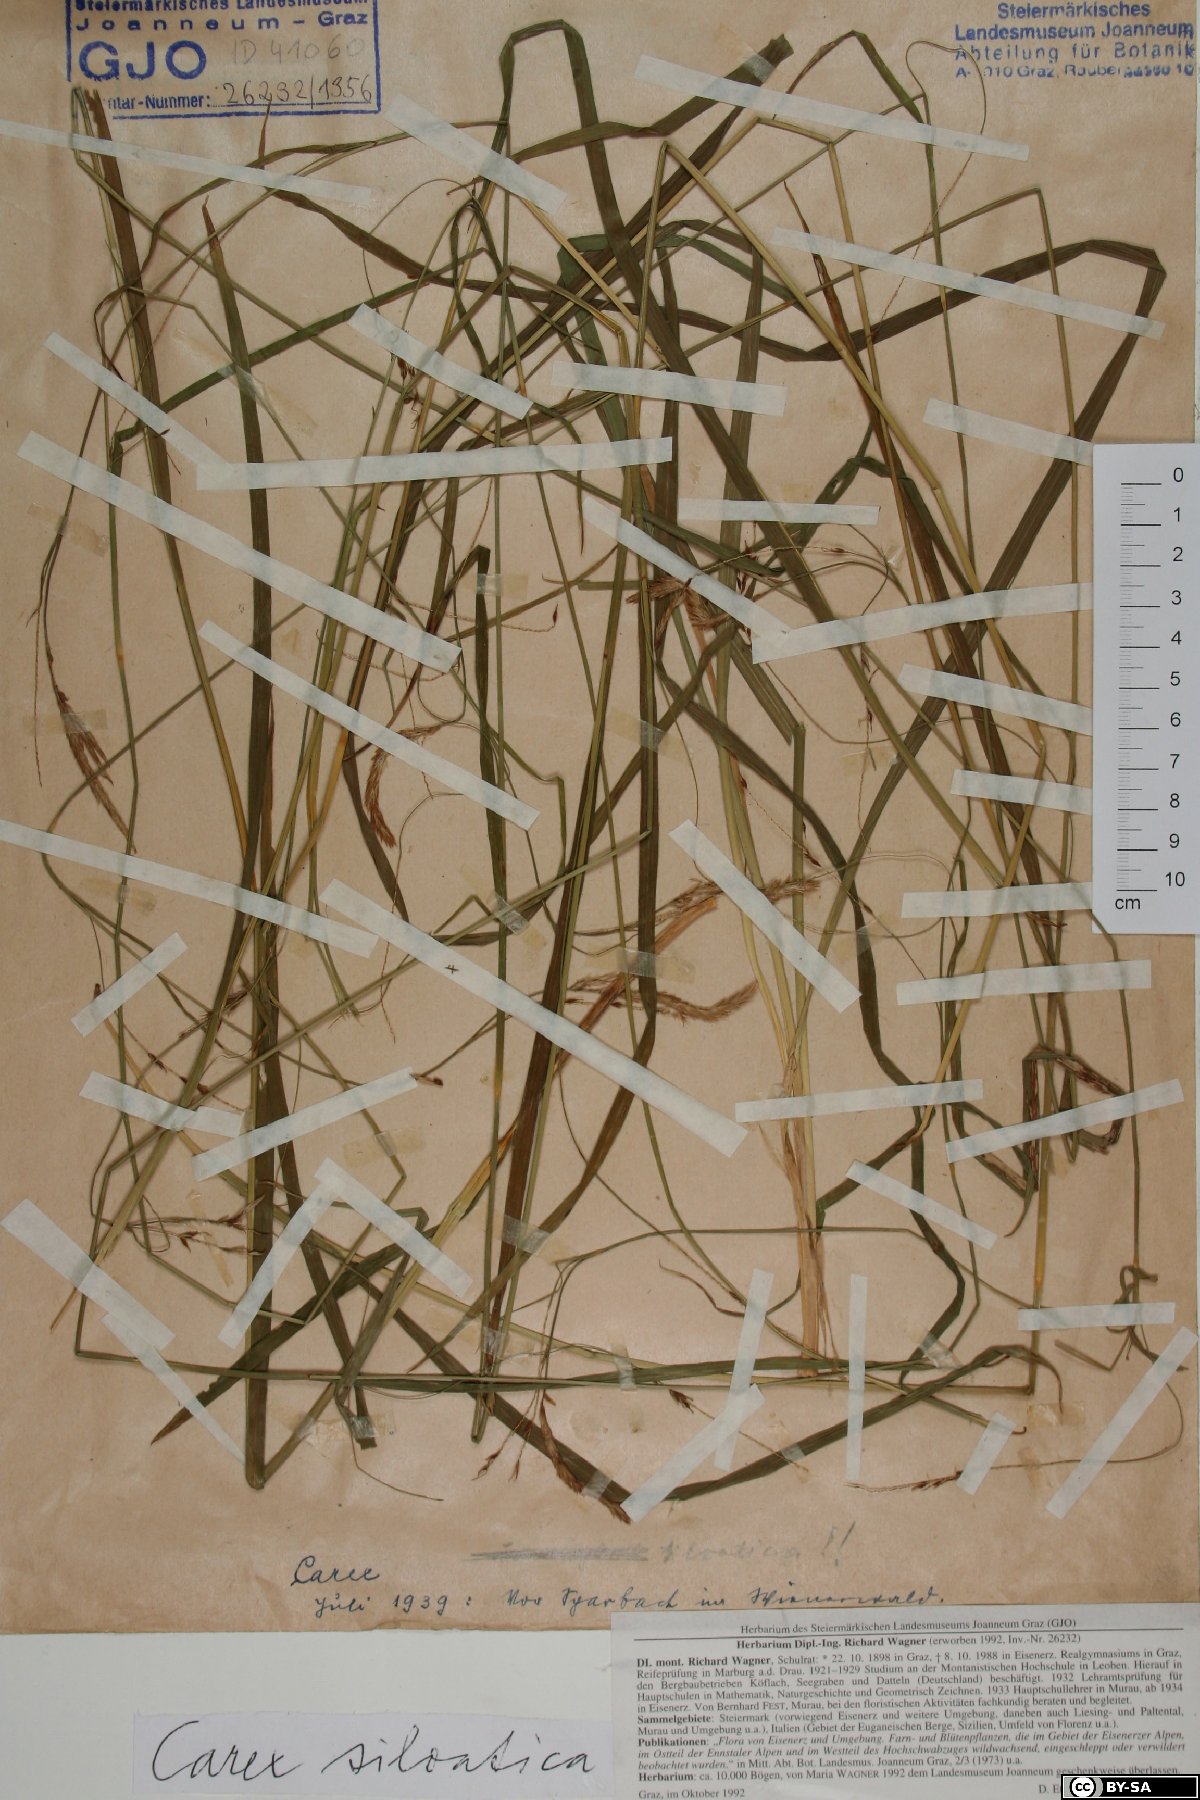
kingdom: Plantae
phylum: Tracheophyta
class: Liliopsida
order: Poales
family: Cyperaceae
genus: Carex
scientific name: Carex sylvatica
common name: Wood-sedge
